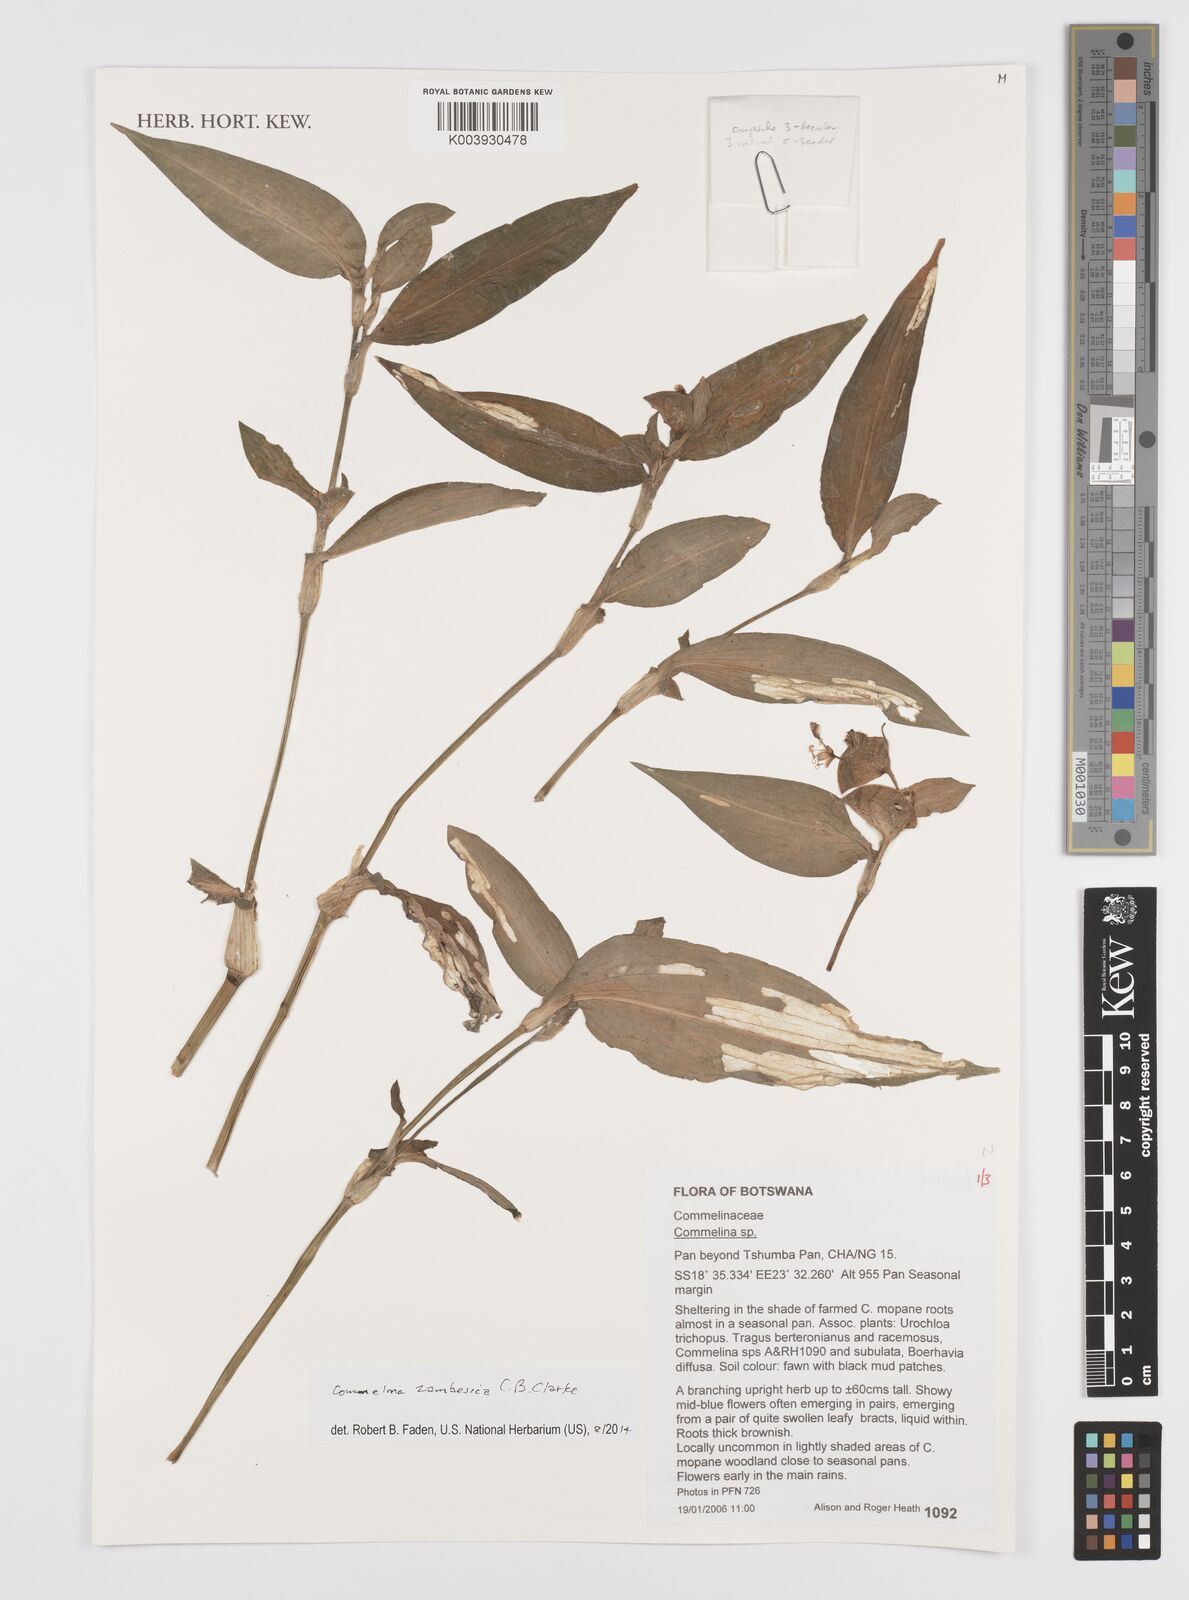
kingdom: Plantae
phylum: Tracheophyta
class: Liliopsida
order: Commelinales
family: Commelinaceae
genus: Commelina
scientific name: Commelina zambesica
